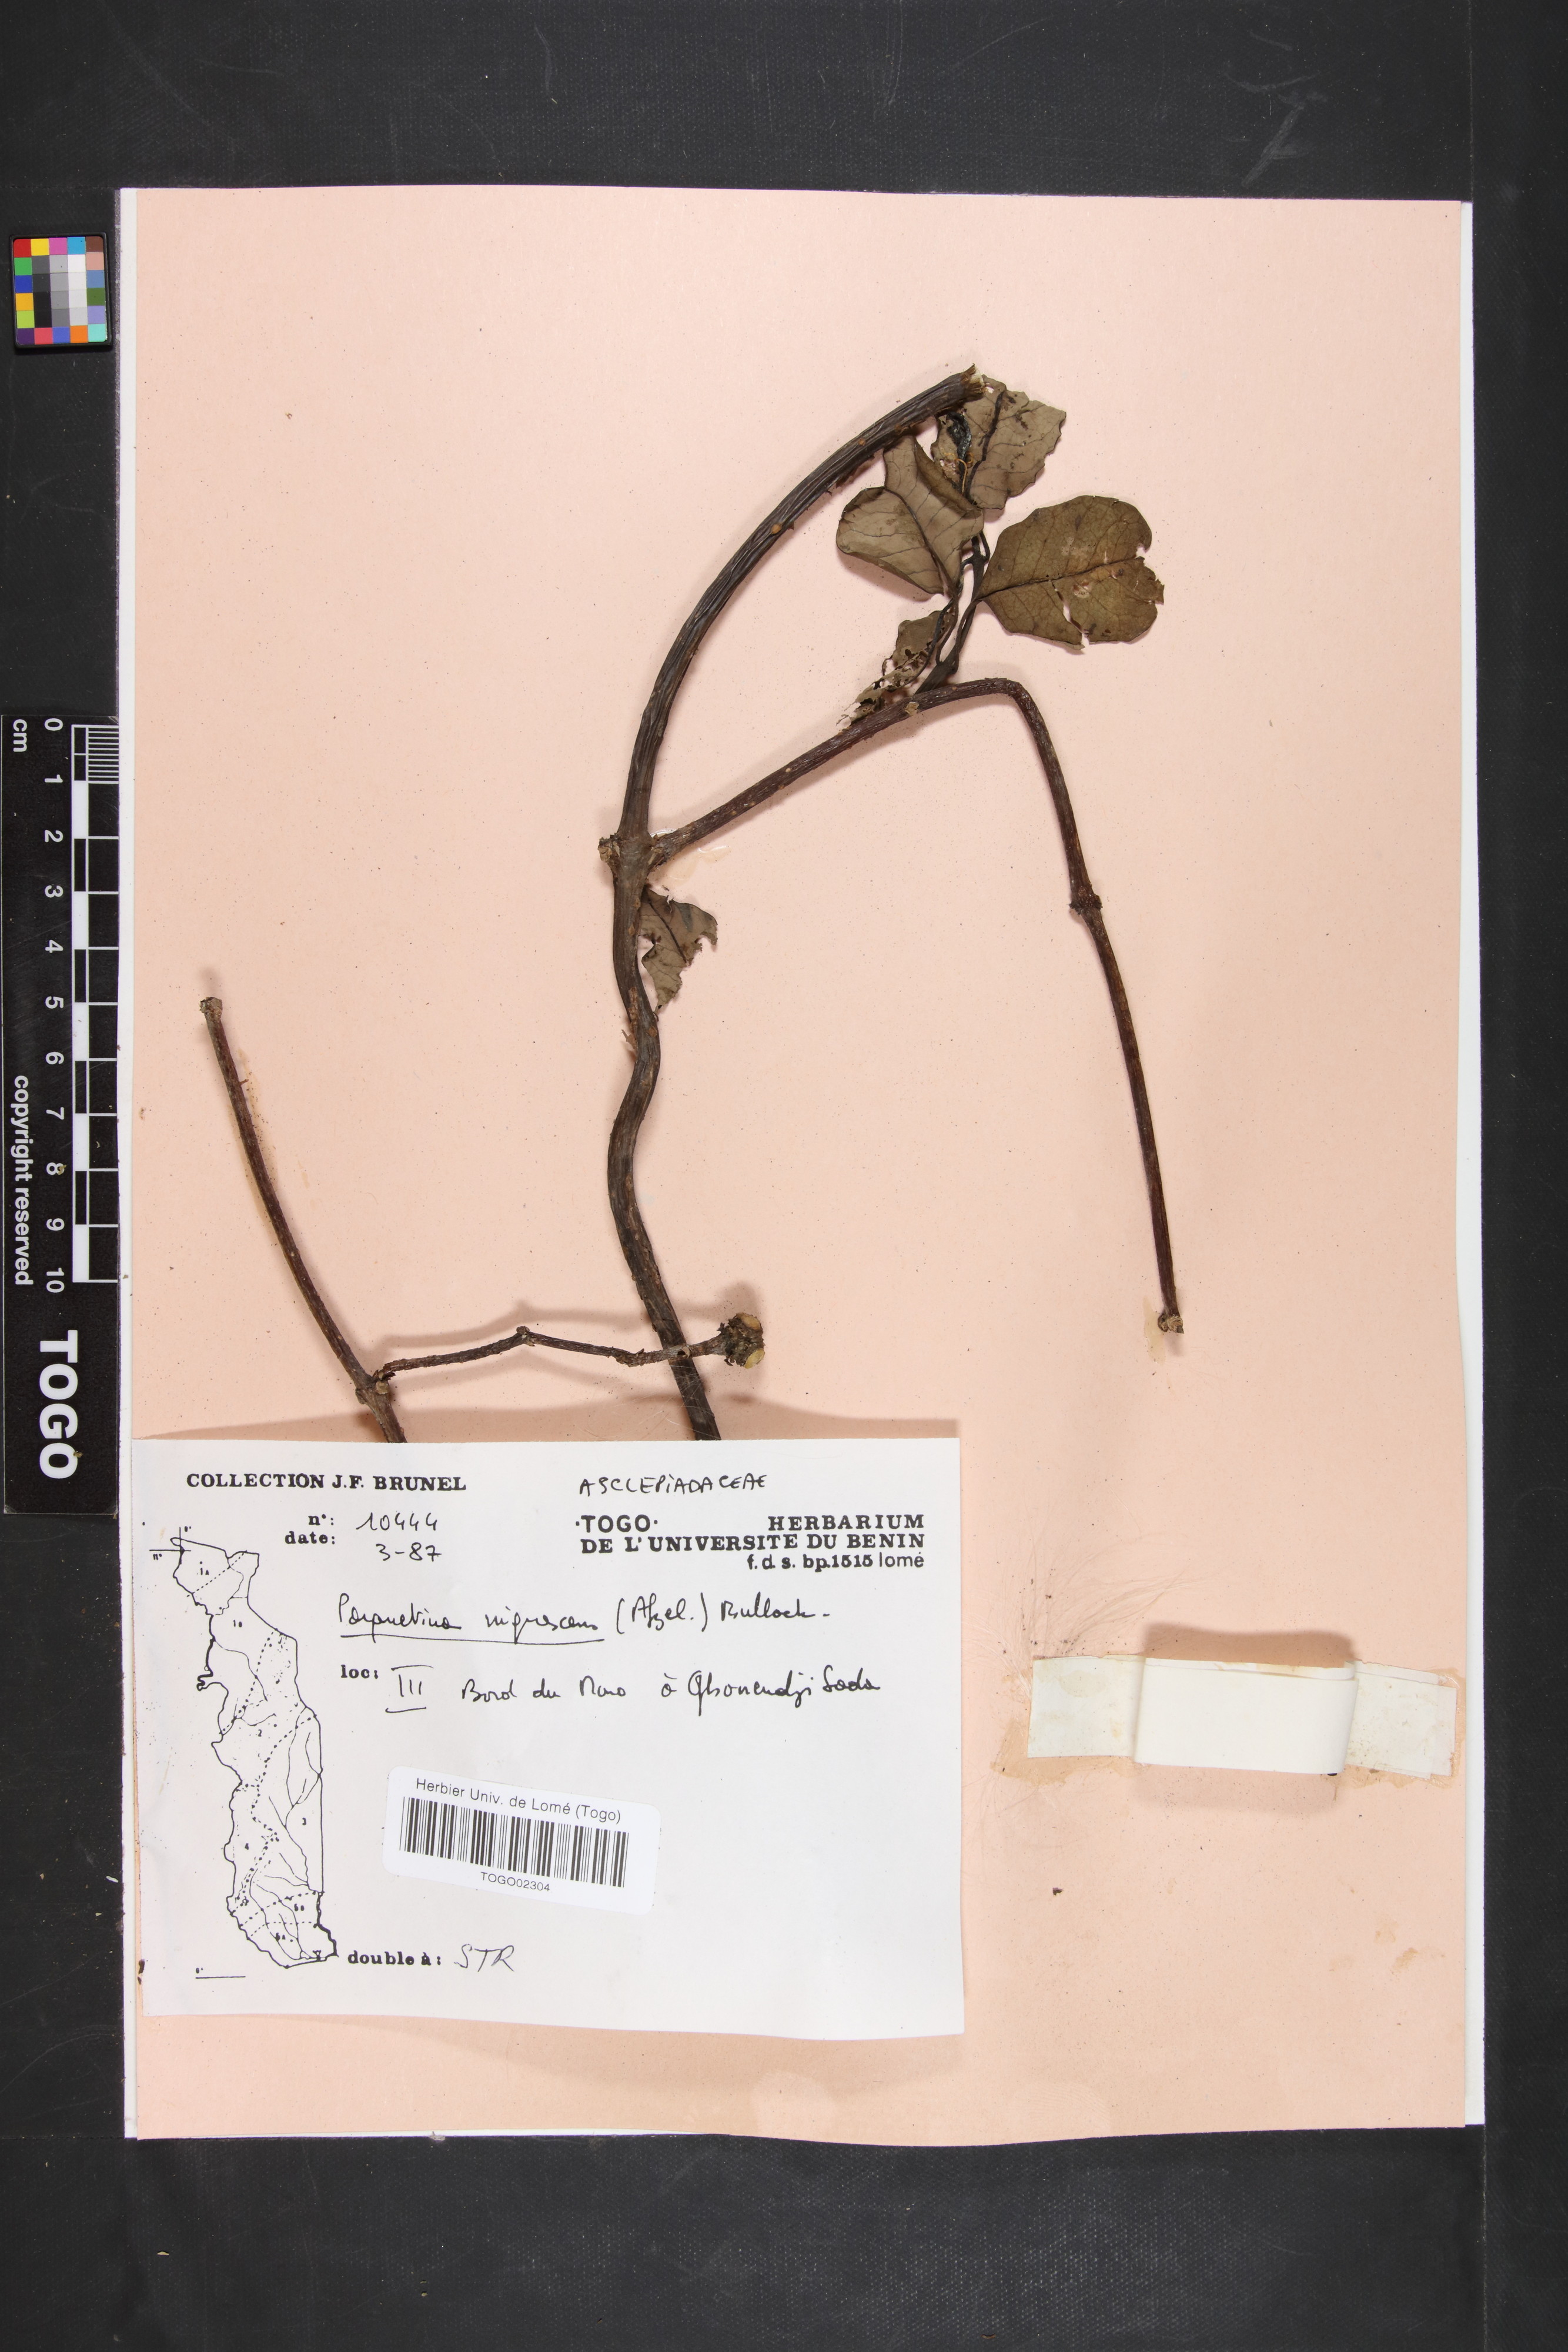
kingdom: Plantae
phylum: Tracheophyta
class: Magnoliopsida
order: Gentianales
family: Apocynaceae
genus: Cryptolepis
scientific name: Cryptolepis nigrescens
